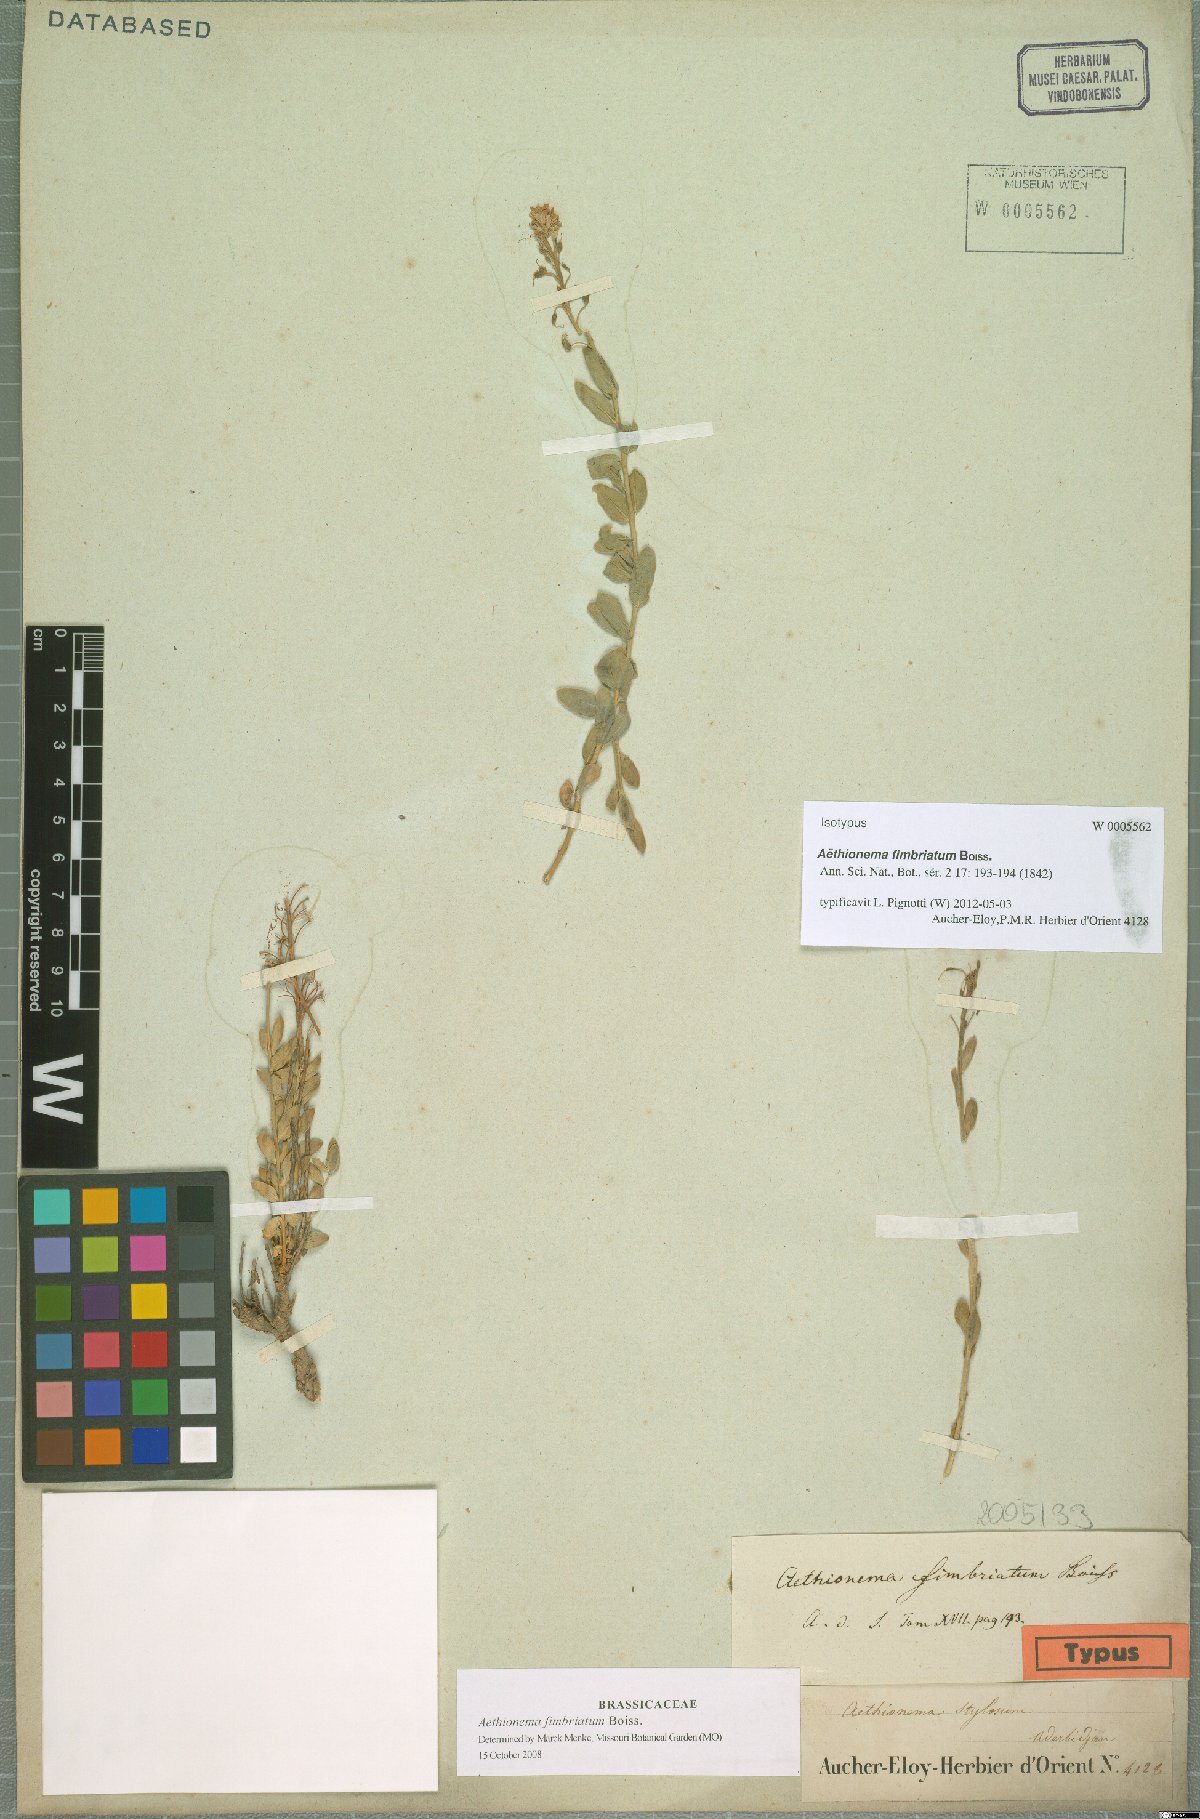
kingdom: Plantae
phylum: Tracheophyta
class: Magnoliopsida
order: Brassicales
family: Brassicaceae
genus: Aethionema
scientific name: Aethionema fimbriatum
